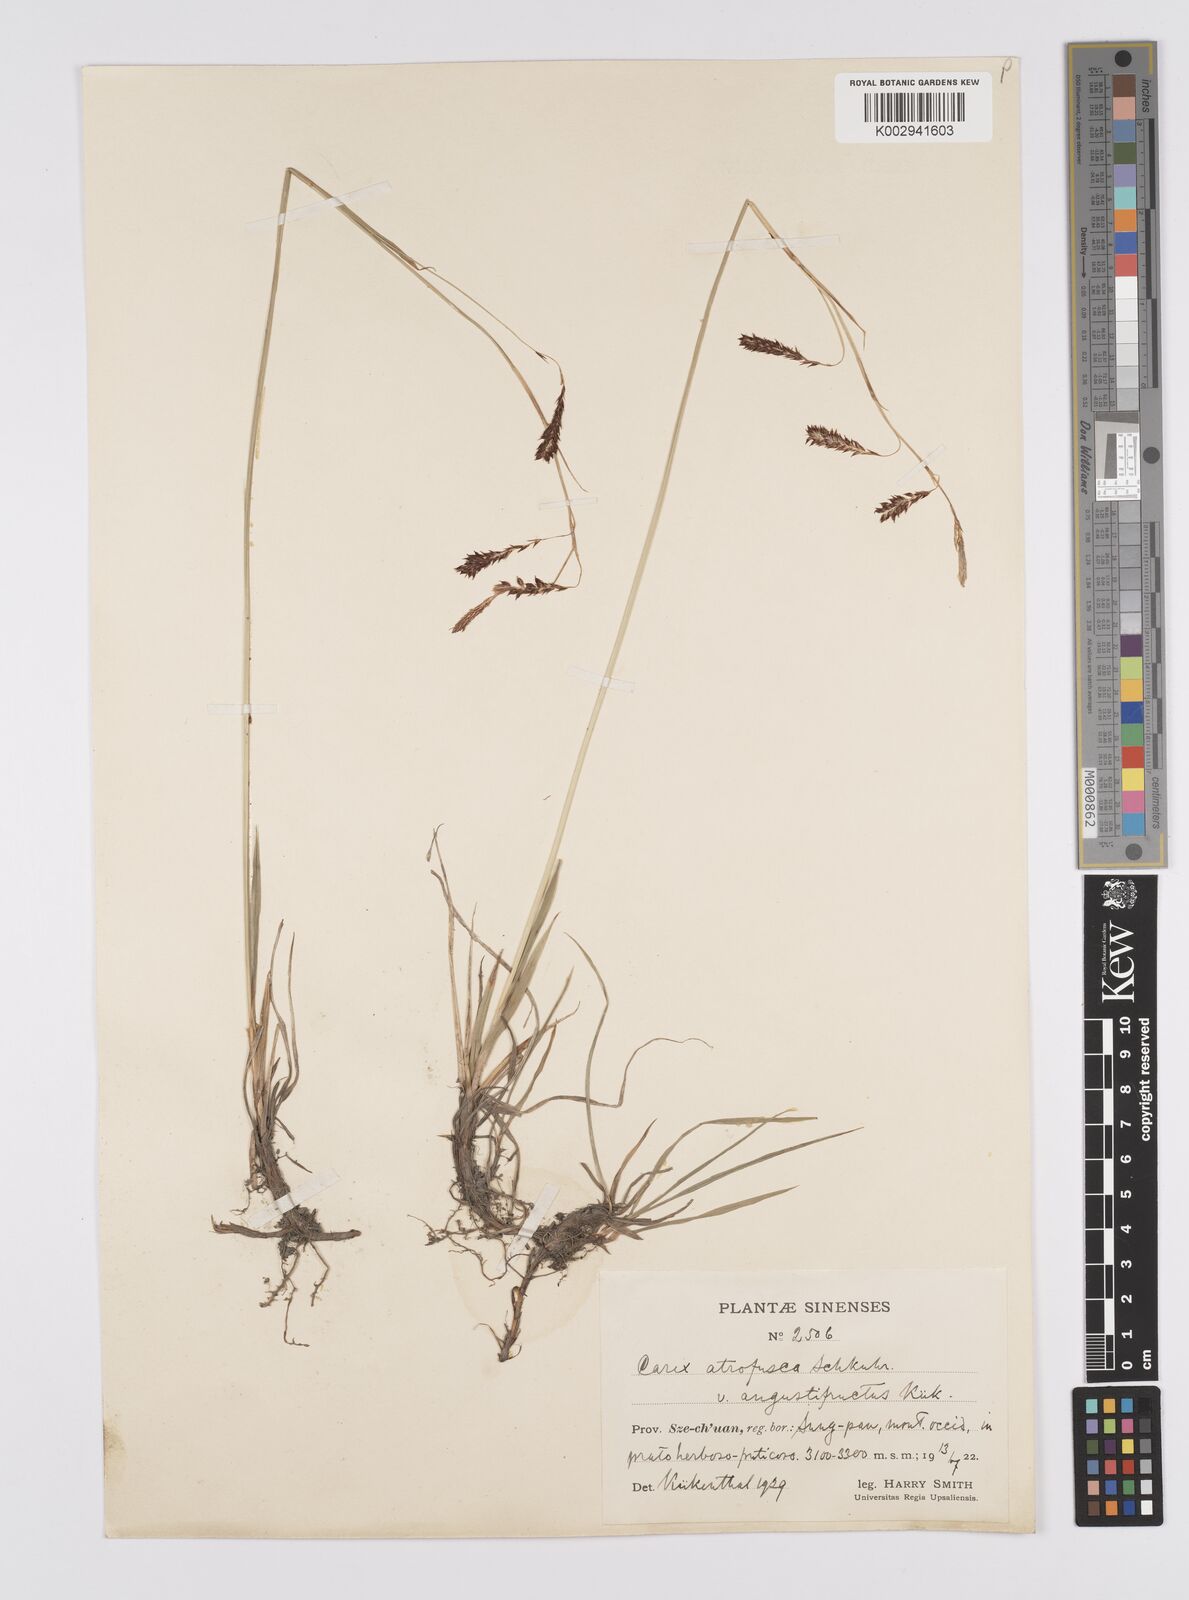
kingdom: Plantae
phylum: Tracheophyta
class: Liliopsida
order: Poales
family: Cyperaceae
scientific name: Cyperaceae
